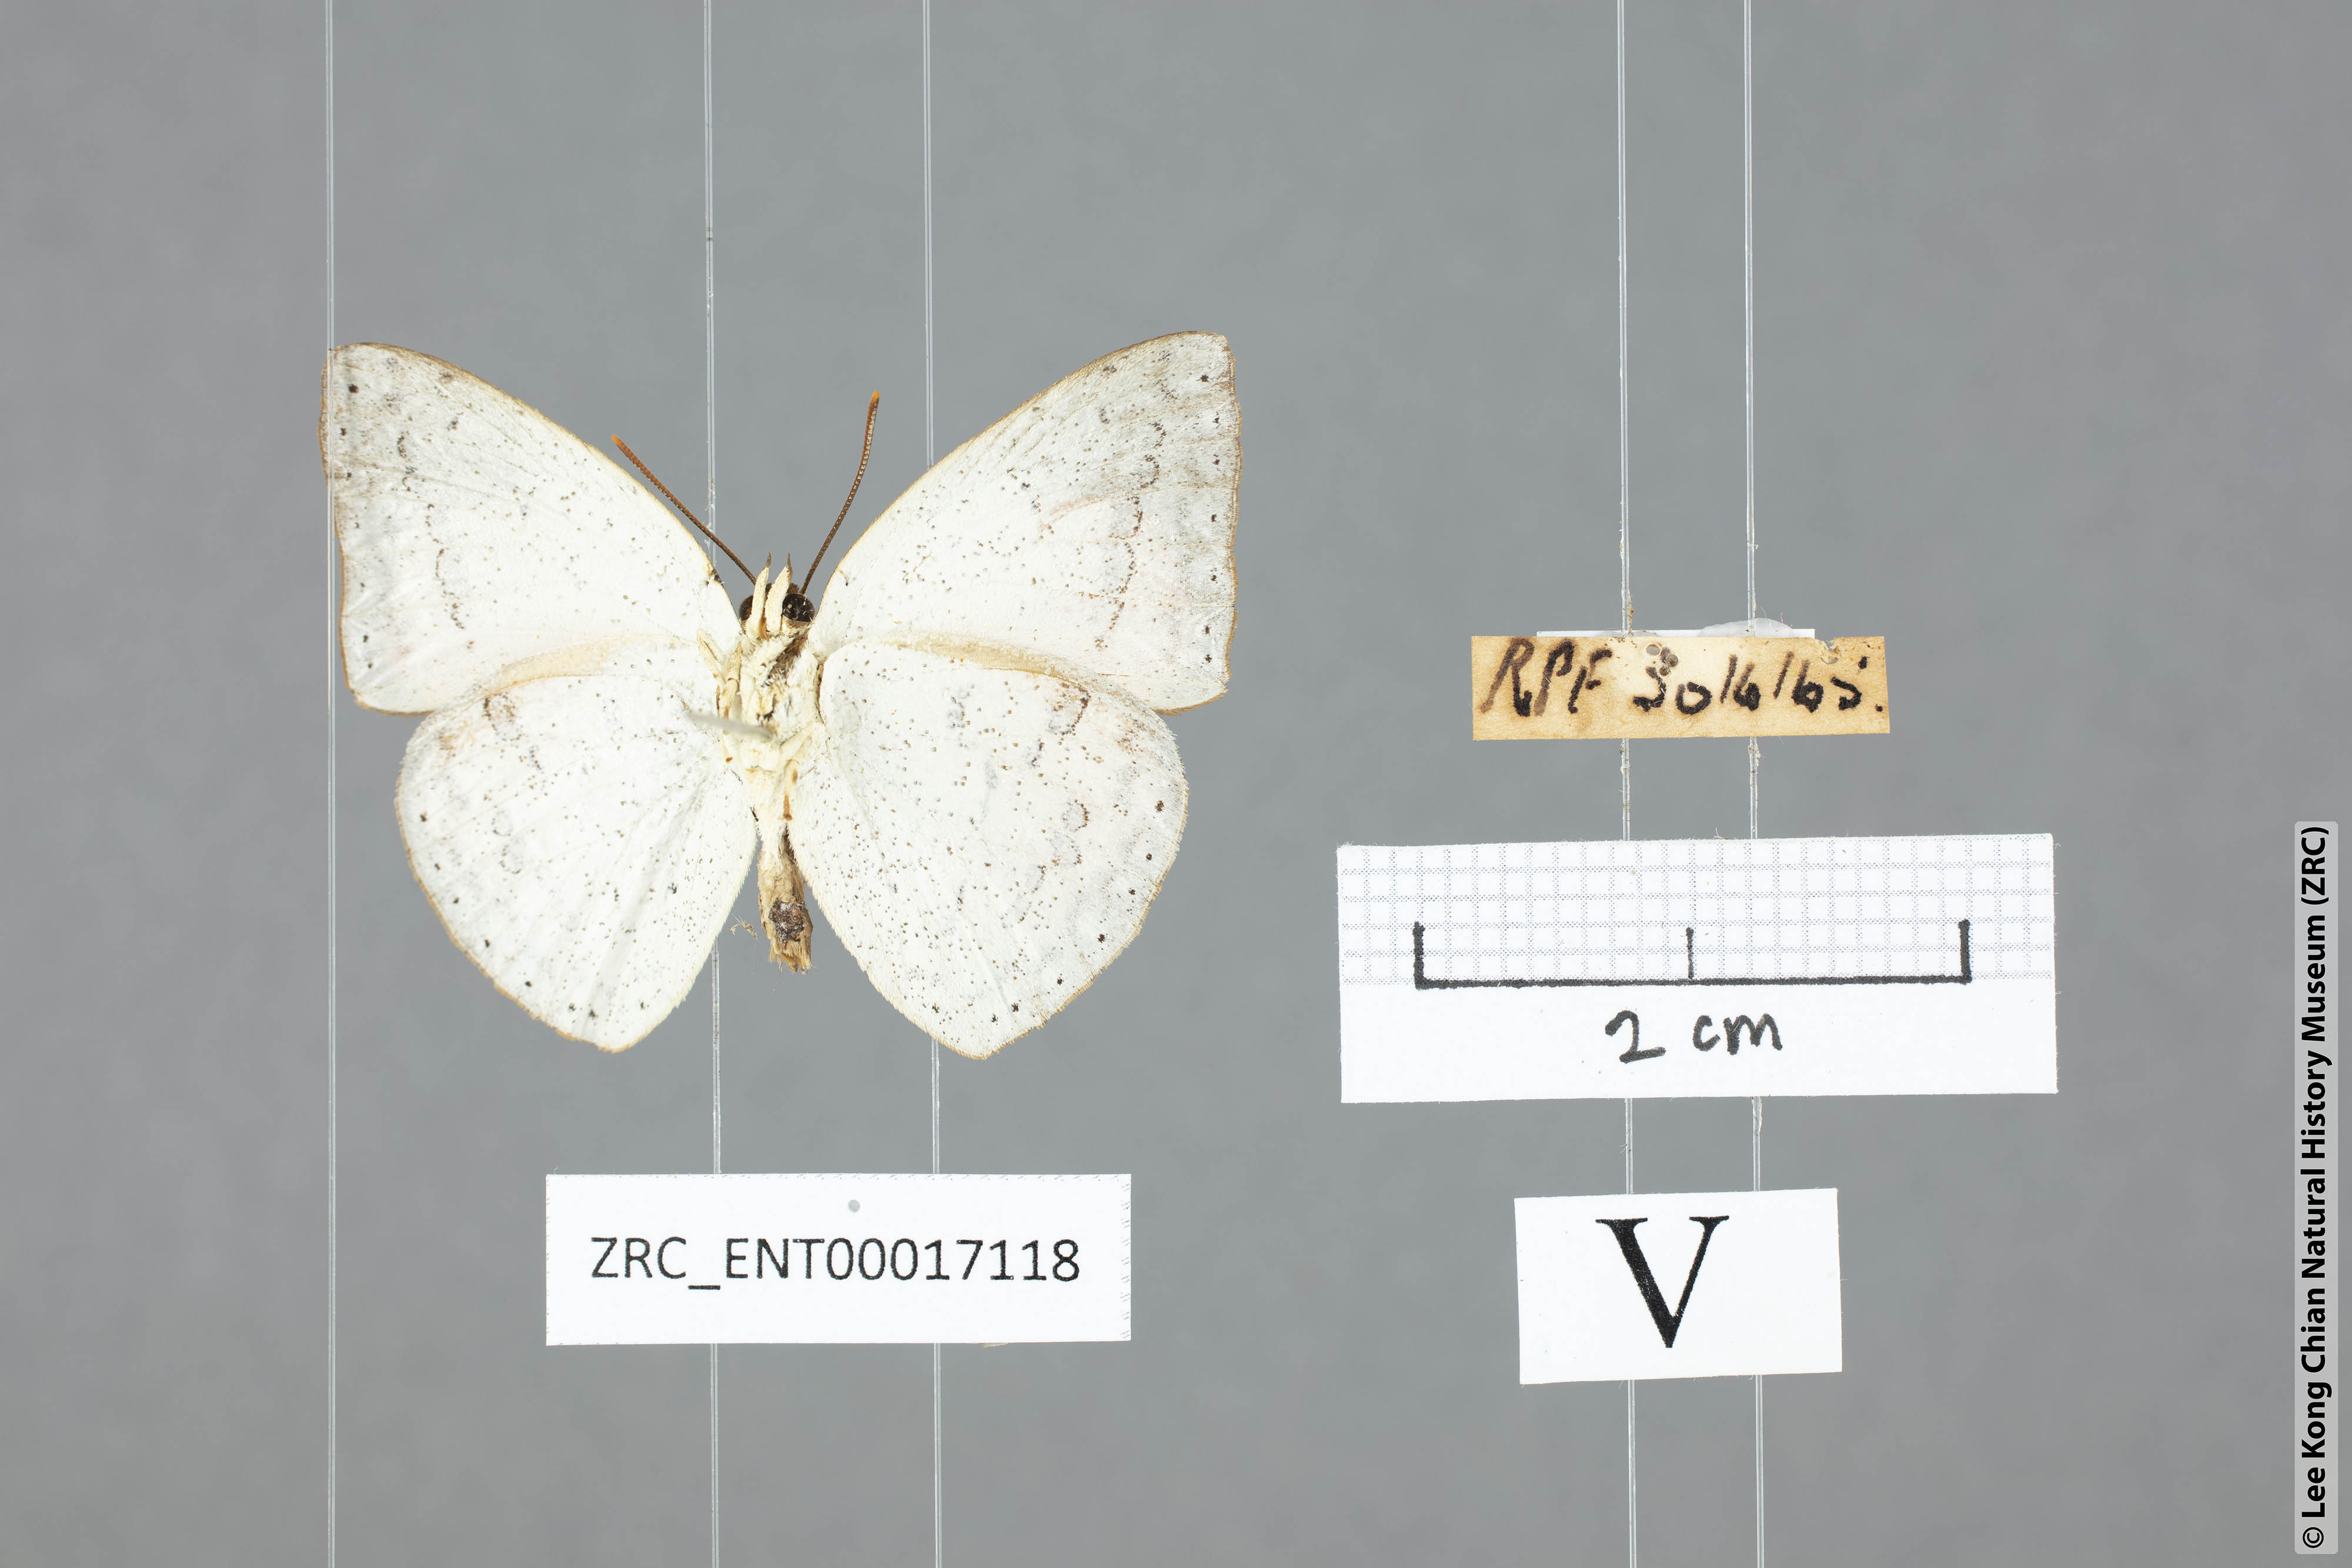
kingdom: Animalia
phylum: Arthropoda
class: Insecta
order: Lepidoptera
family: Lycaenidae
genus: Curetis
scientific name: Curetis felderi
